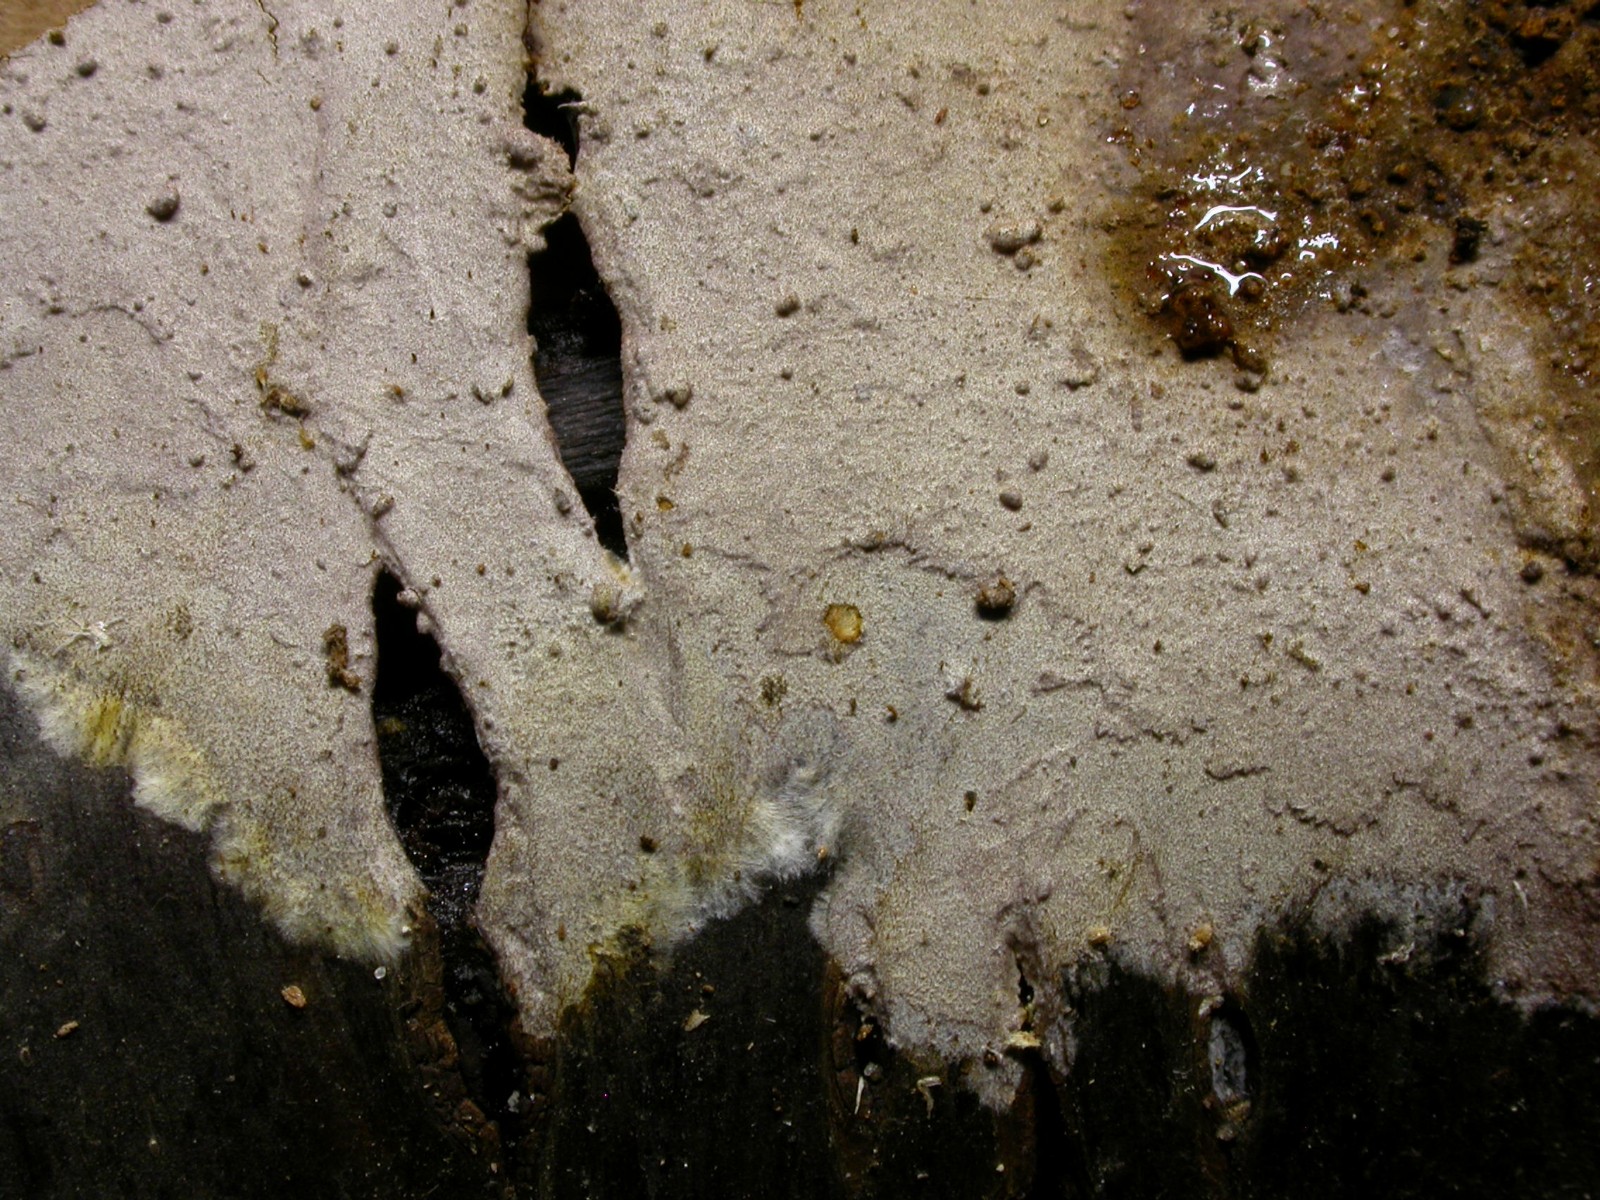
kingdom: Fungi
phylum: Basidiomycota
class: Agaricomycetes
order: Hymenochaetales
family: Hymenochaetaceae
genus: Hydnoporia
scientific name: Hydnoporia tabacina
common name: tobaksbrun ruslædersvamp
